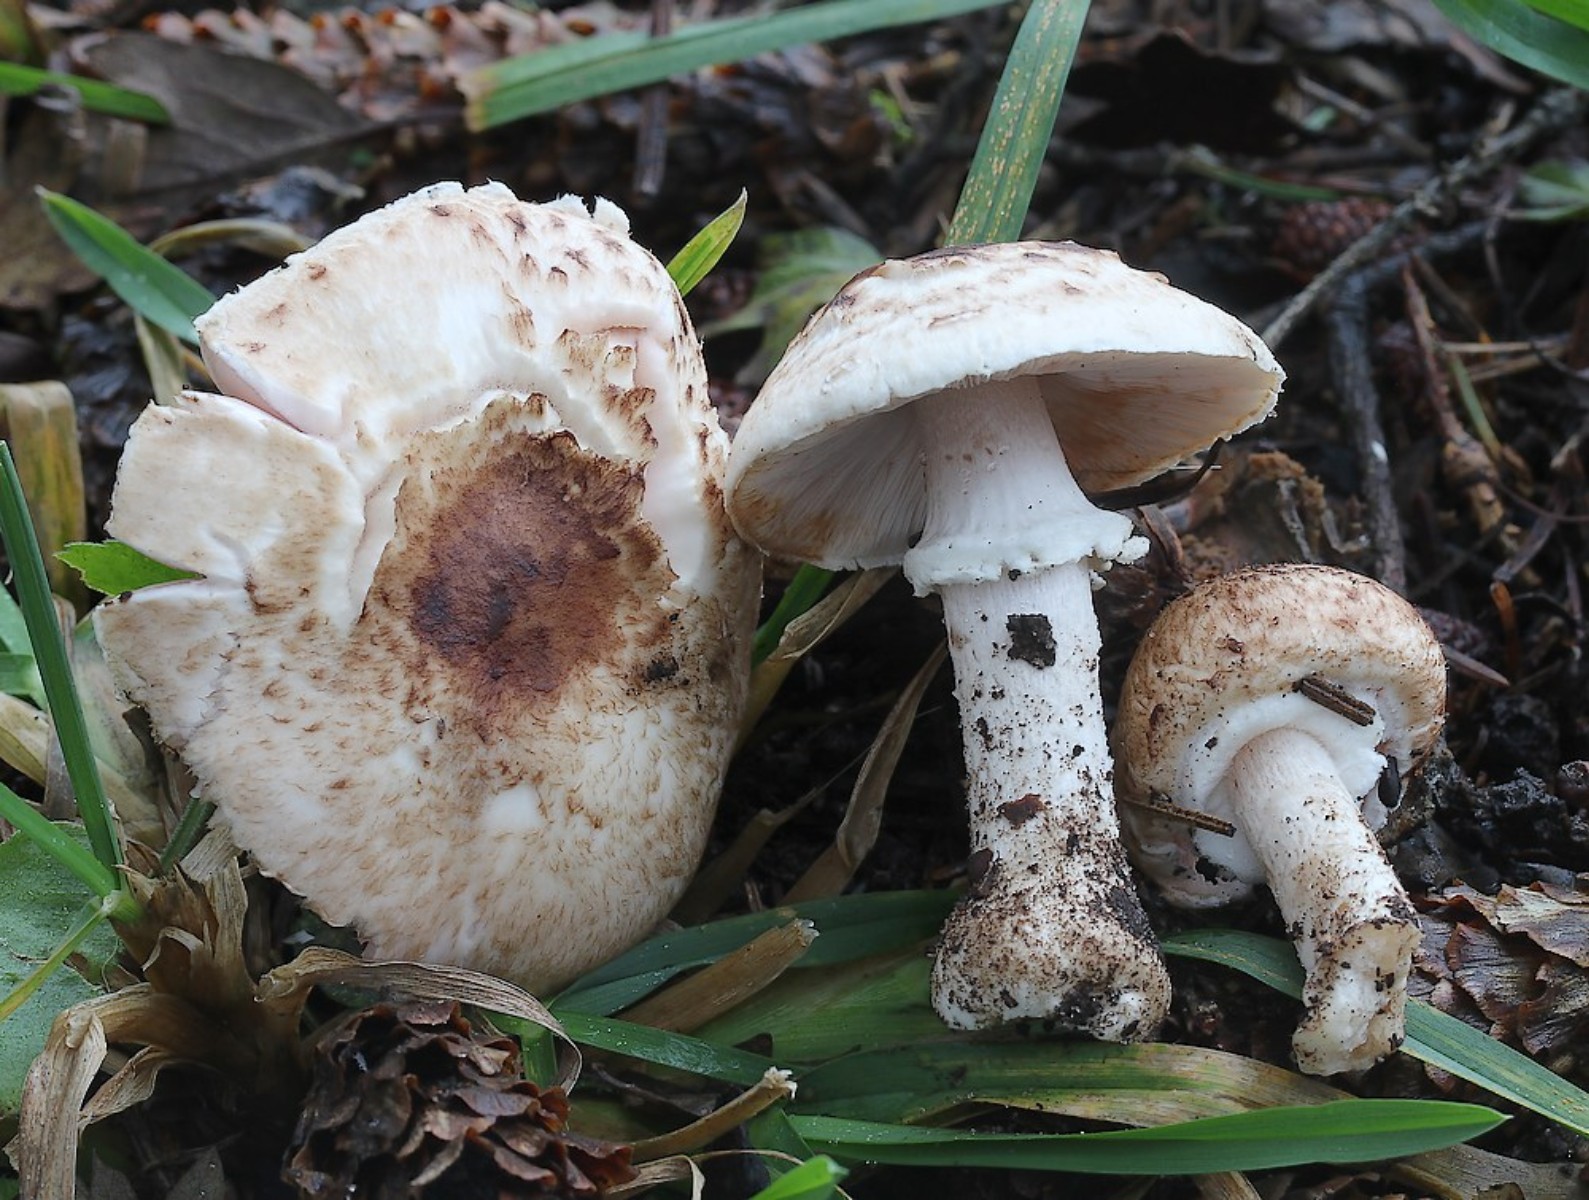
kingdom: Fungi
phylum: Basidiomycota
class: Agaricomycetes
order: Agaricales
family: Agaricaceae
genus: Agaricus
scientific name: Agaricus sylvaticus
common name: lille blod-champignon
